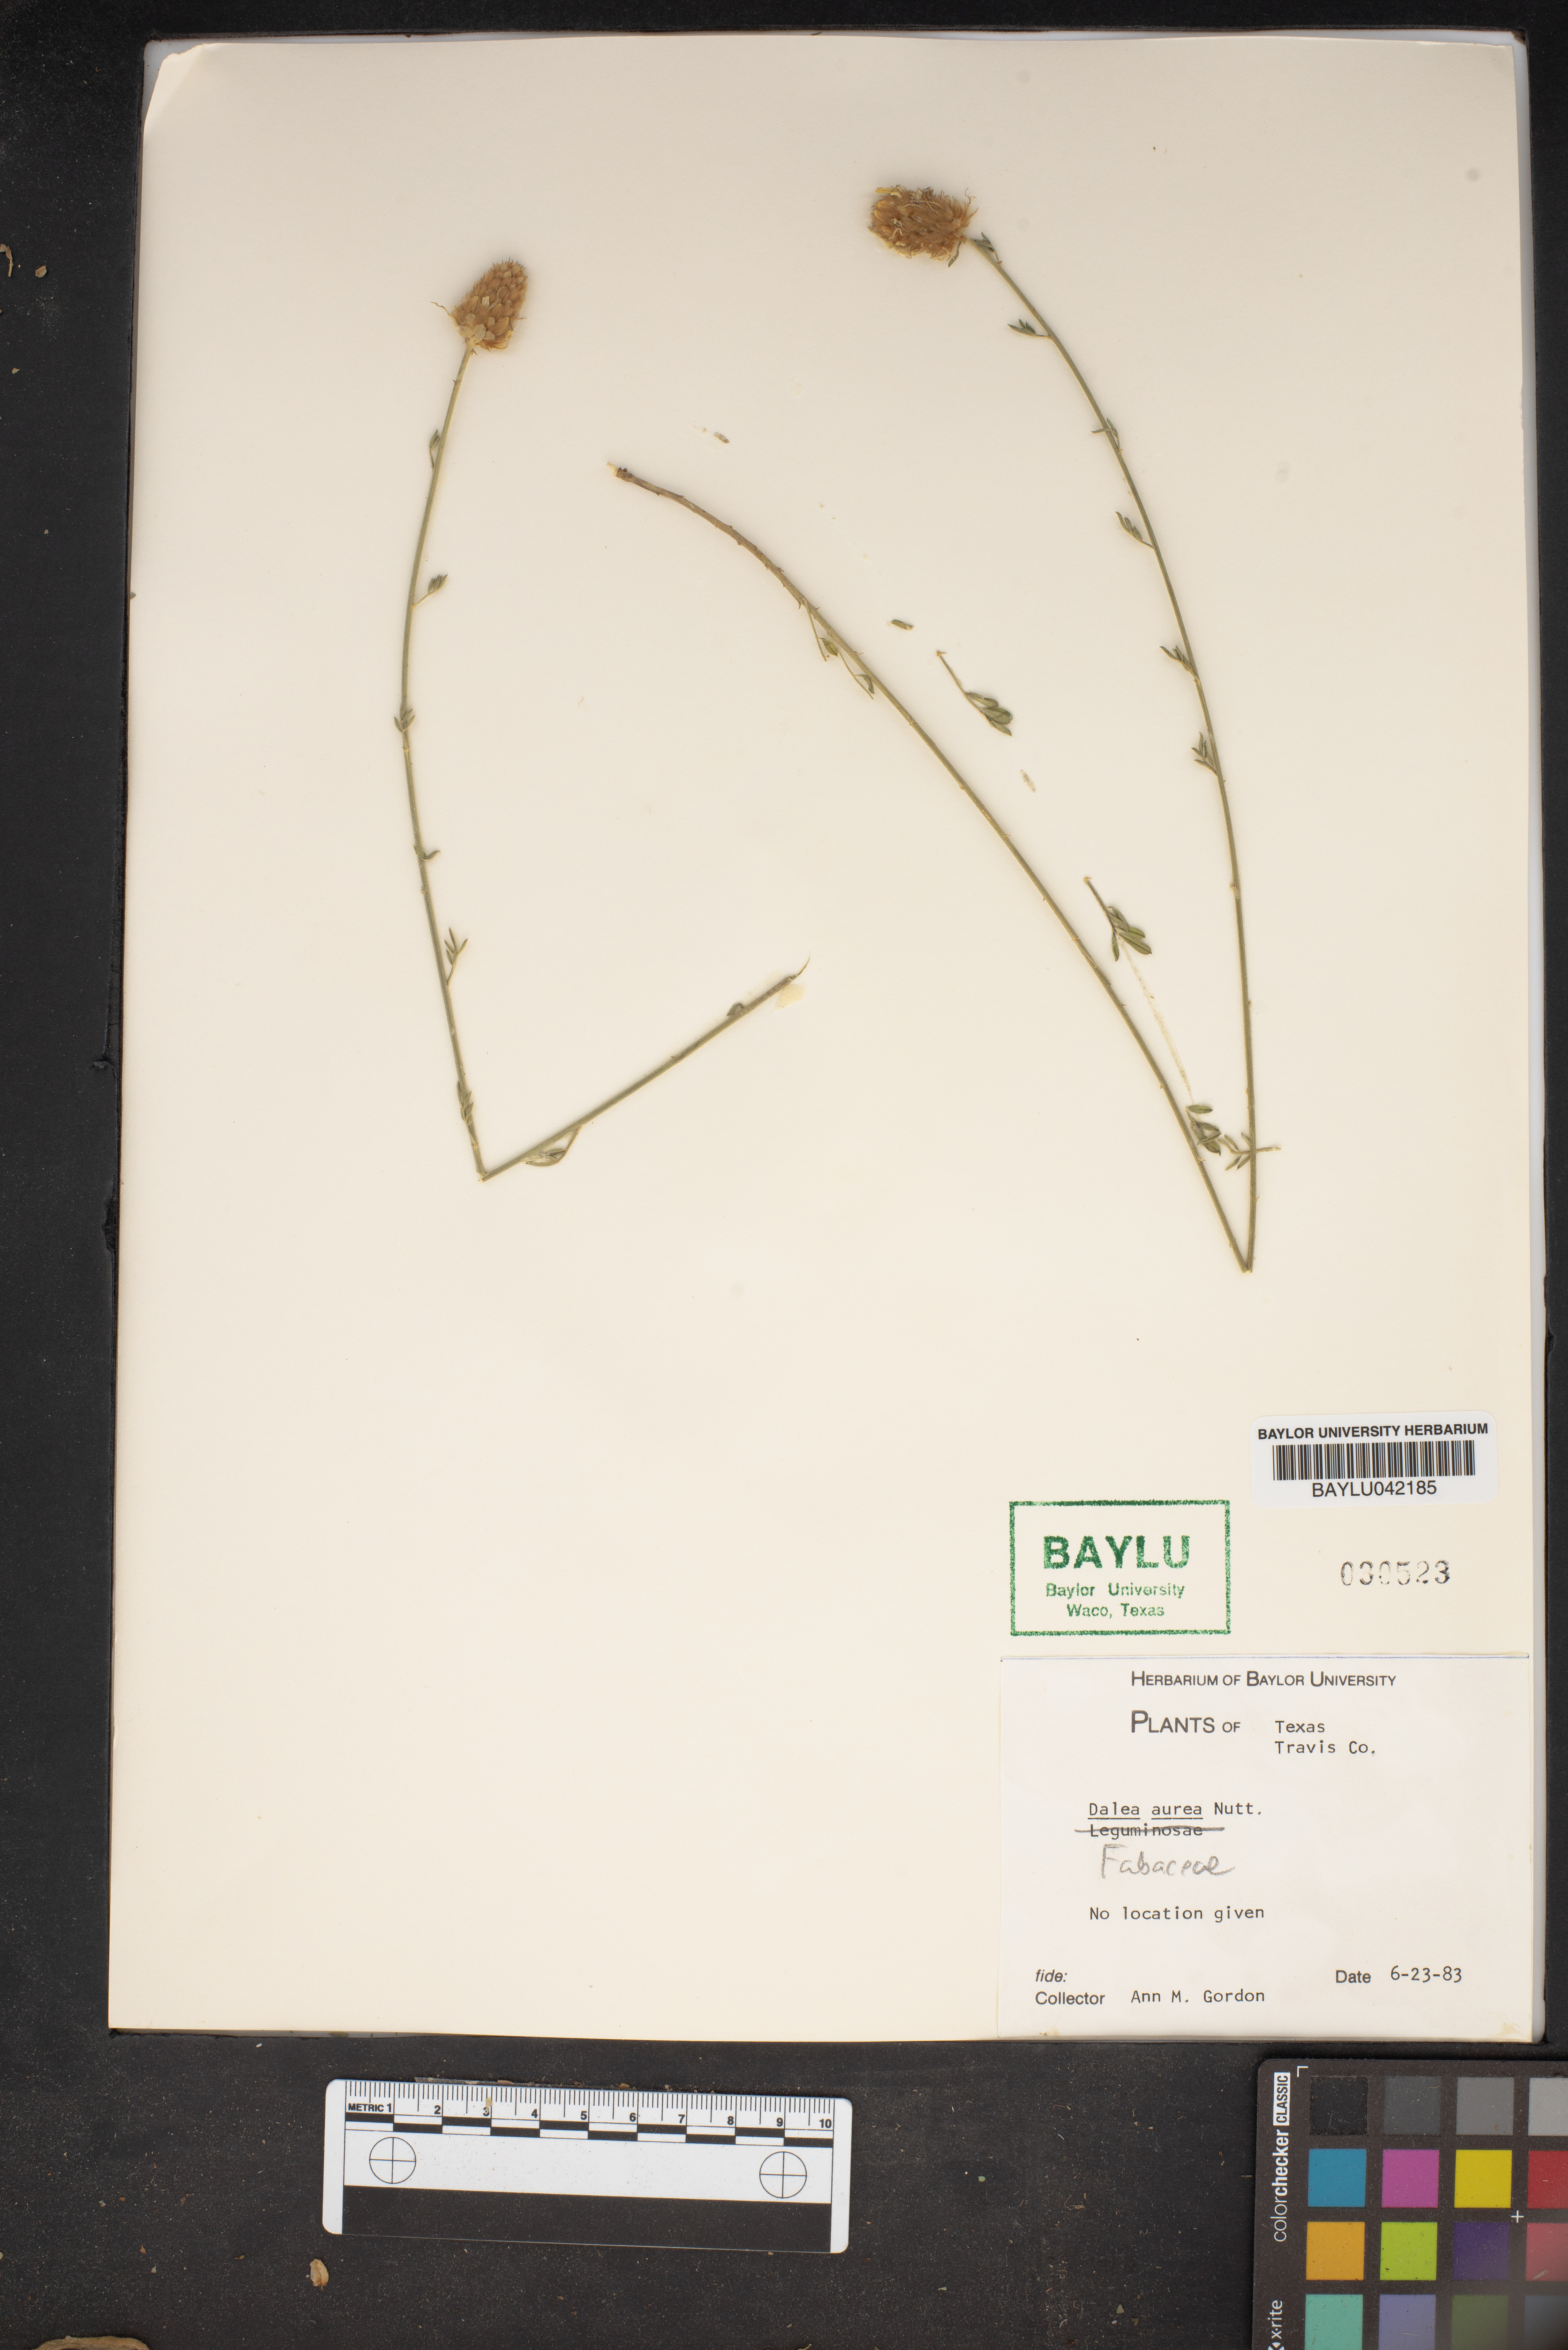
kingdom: Plantae
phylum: Tracheophyta
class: Magnoliopsida
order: Fabales
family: Fabaceae
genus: Dalea
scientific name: Dalea aurea
